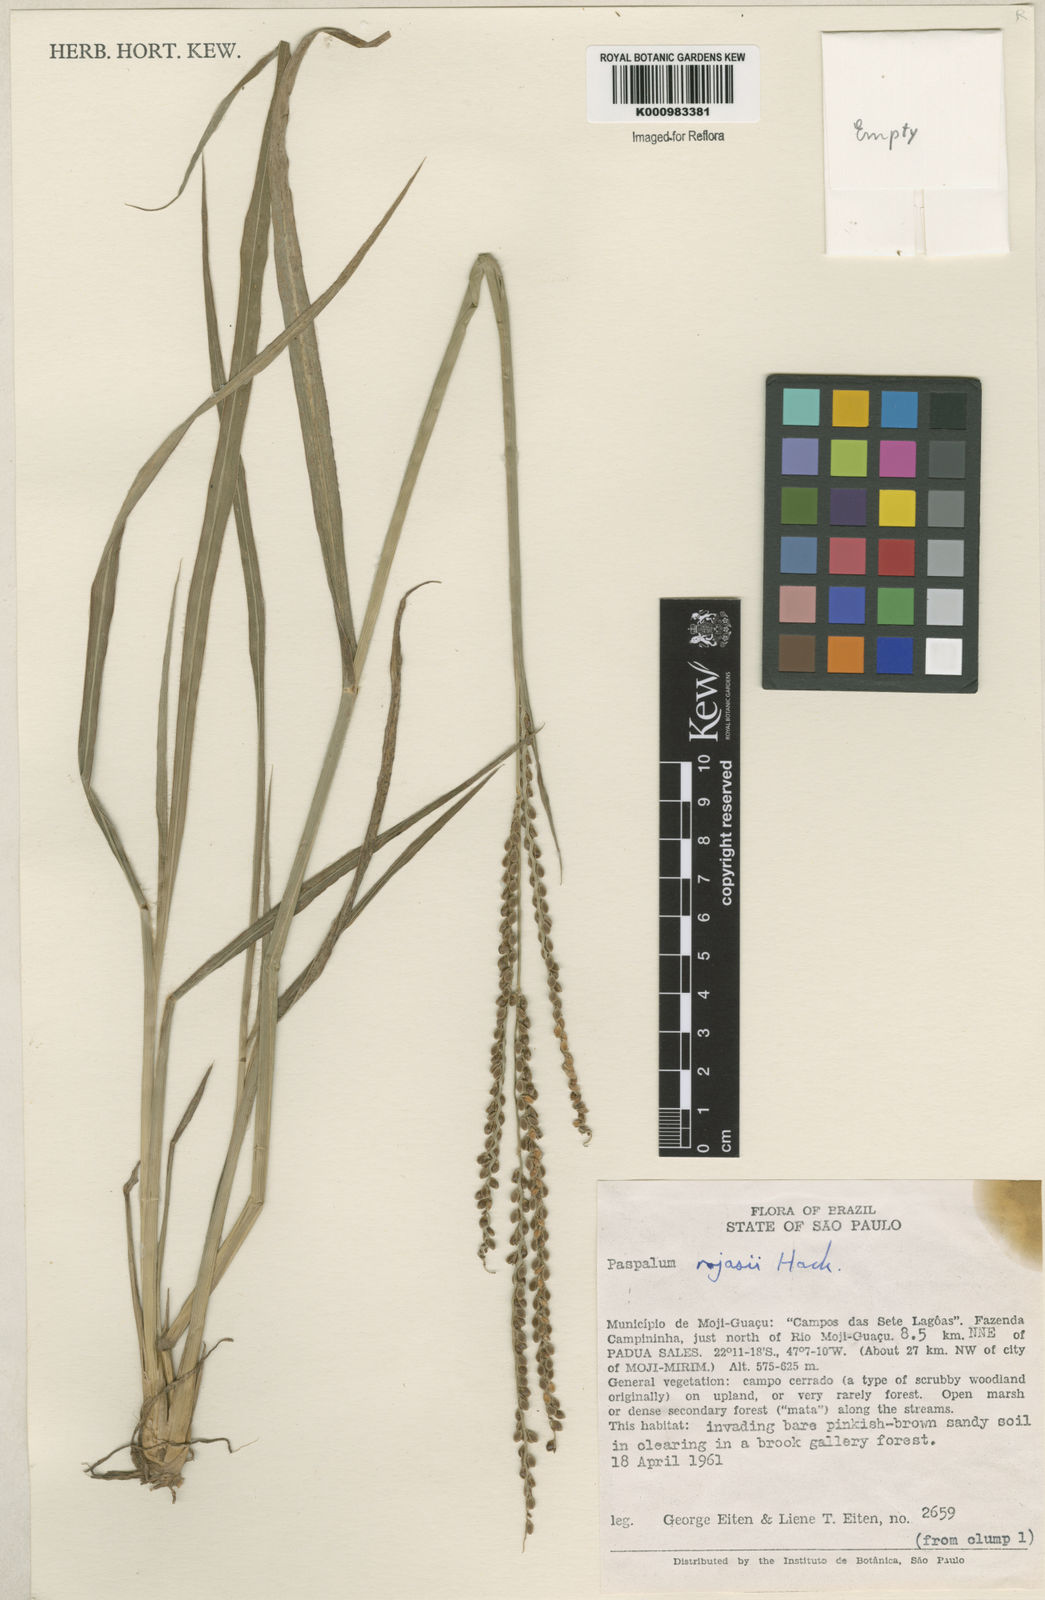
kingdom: Plantae
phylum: Tracheophyta
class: Liliopsida
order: Poales
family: Poaceae
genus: Paspalum
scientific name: Paspalum guenoarum
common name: Wintergreen paspalum
